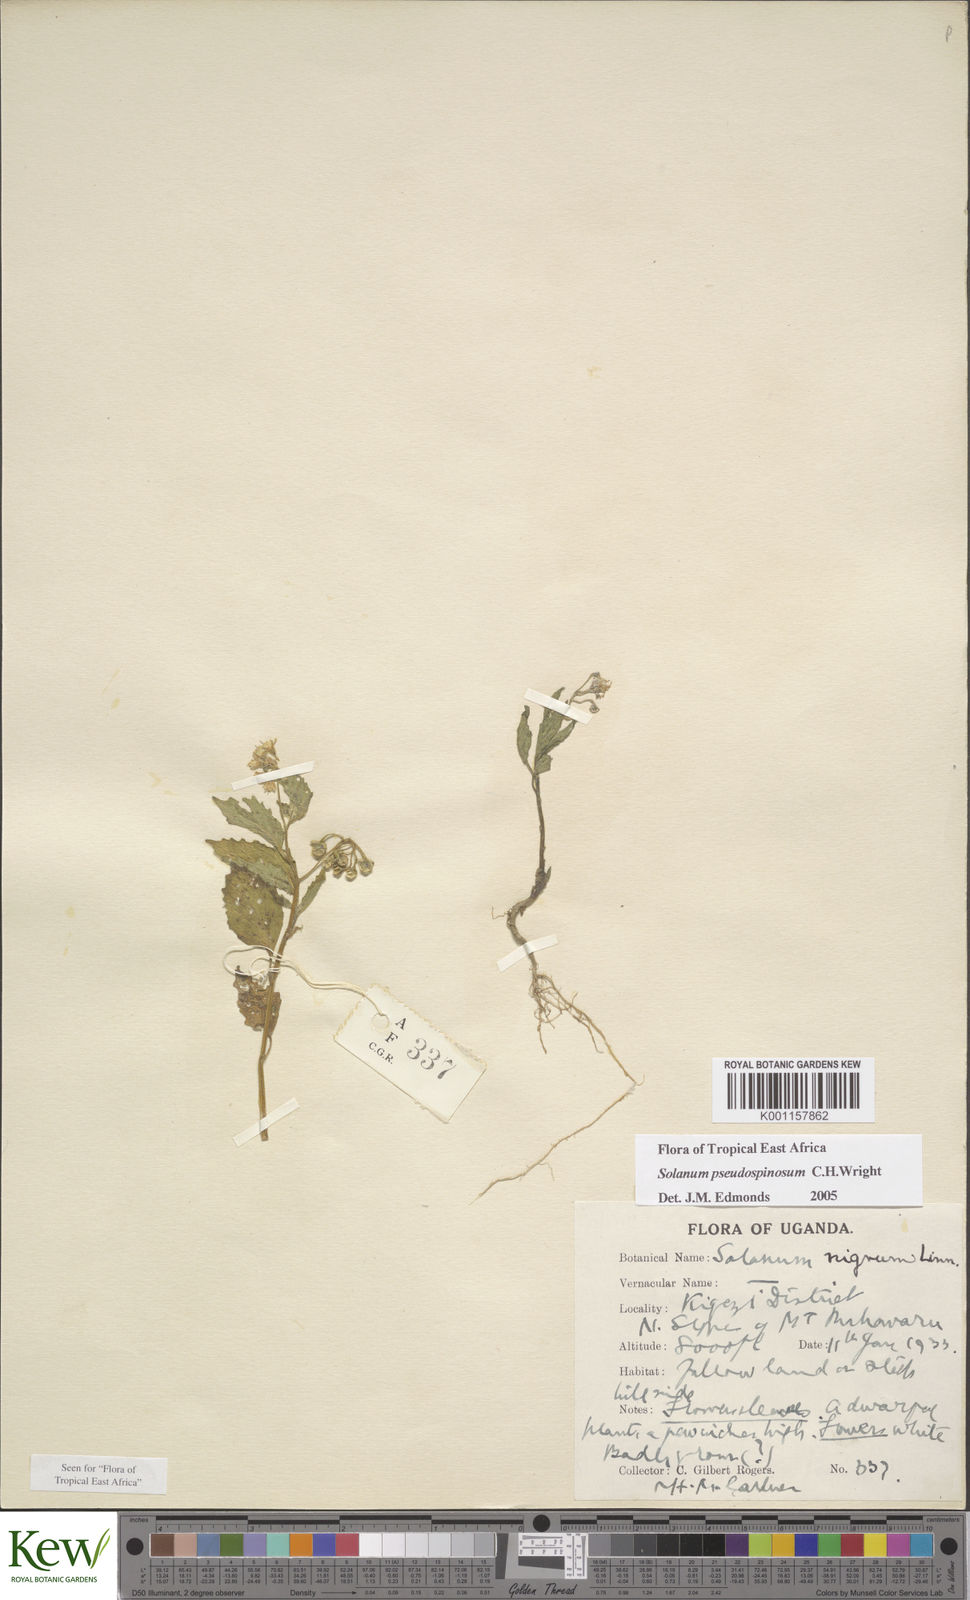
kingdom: Plantae
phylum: Tracheophyta
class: Magnoliopsida
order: Solanales
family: Solanaceae
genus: Solanum
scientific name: Solanum pseudospinosum
